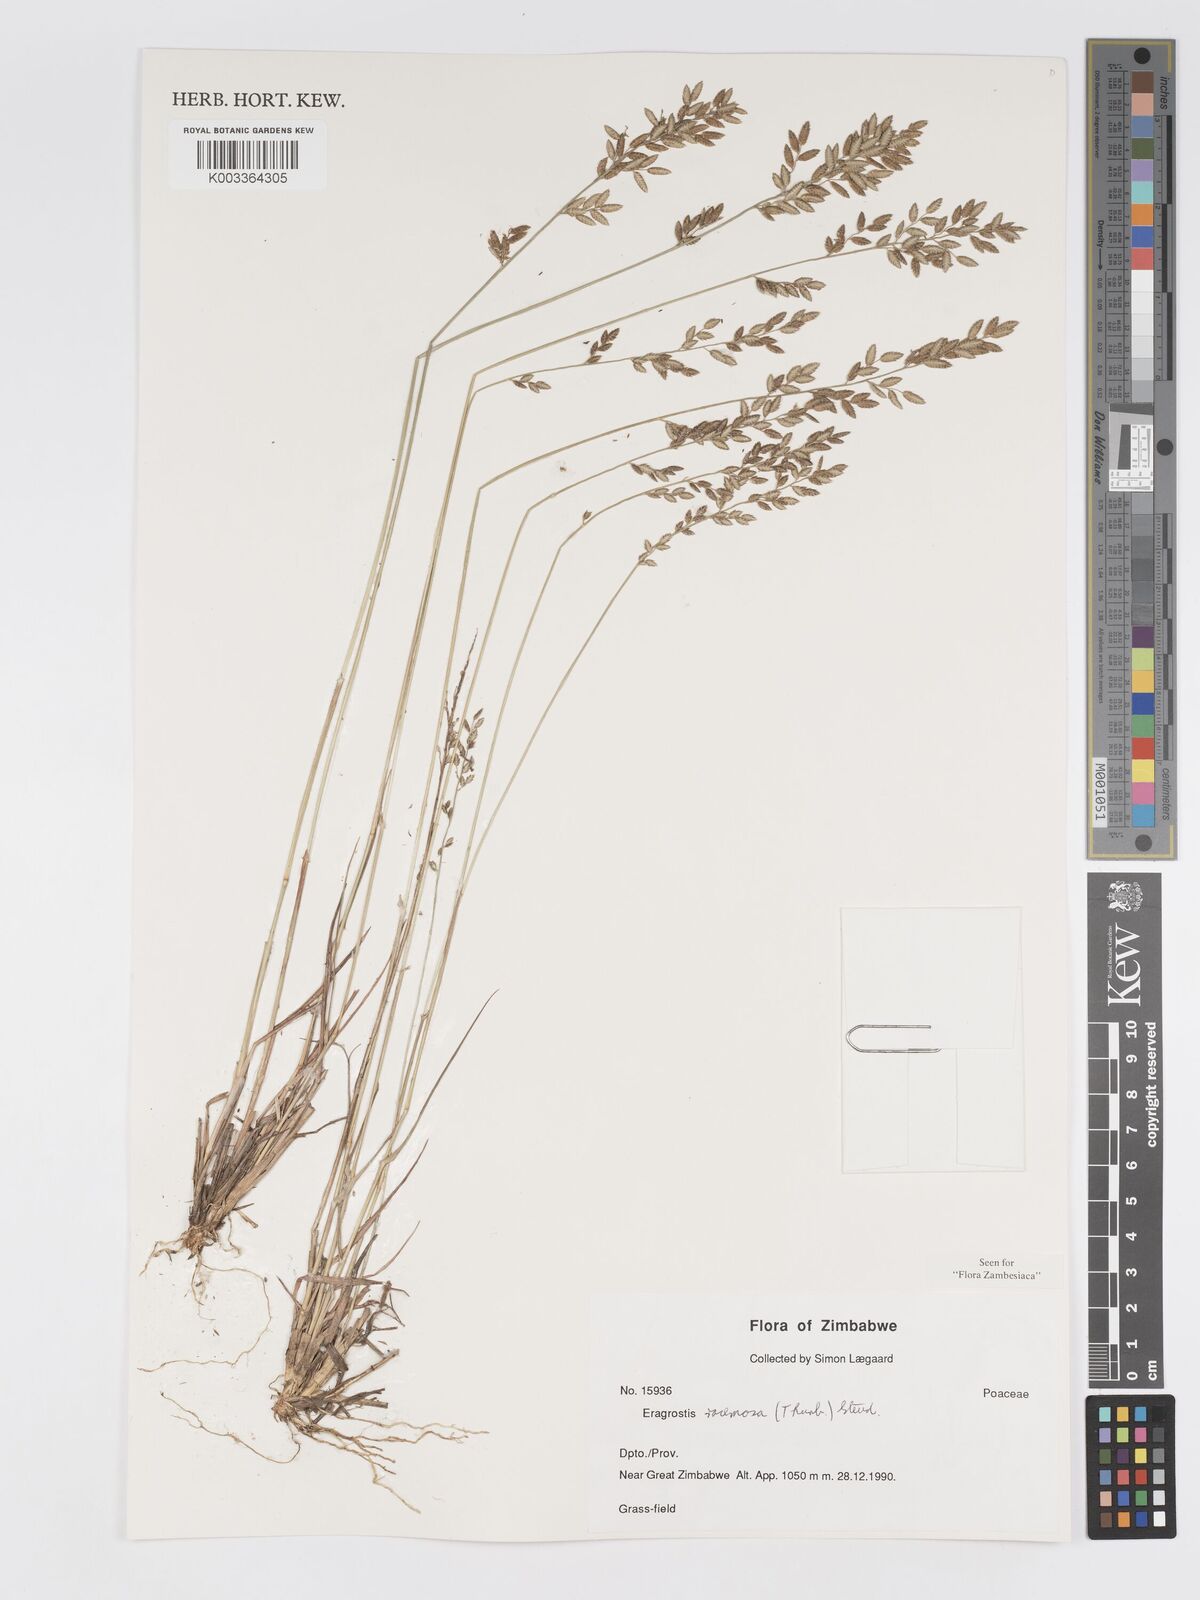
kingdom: Plantae
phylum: Tracheophyta
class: Liliopsida
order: Poales
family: Poaceae
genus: Eragrostis
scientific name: Eragrostis racemosa
